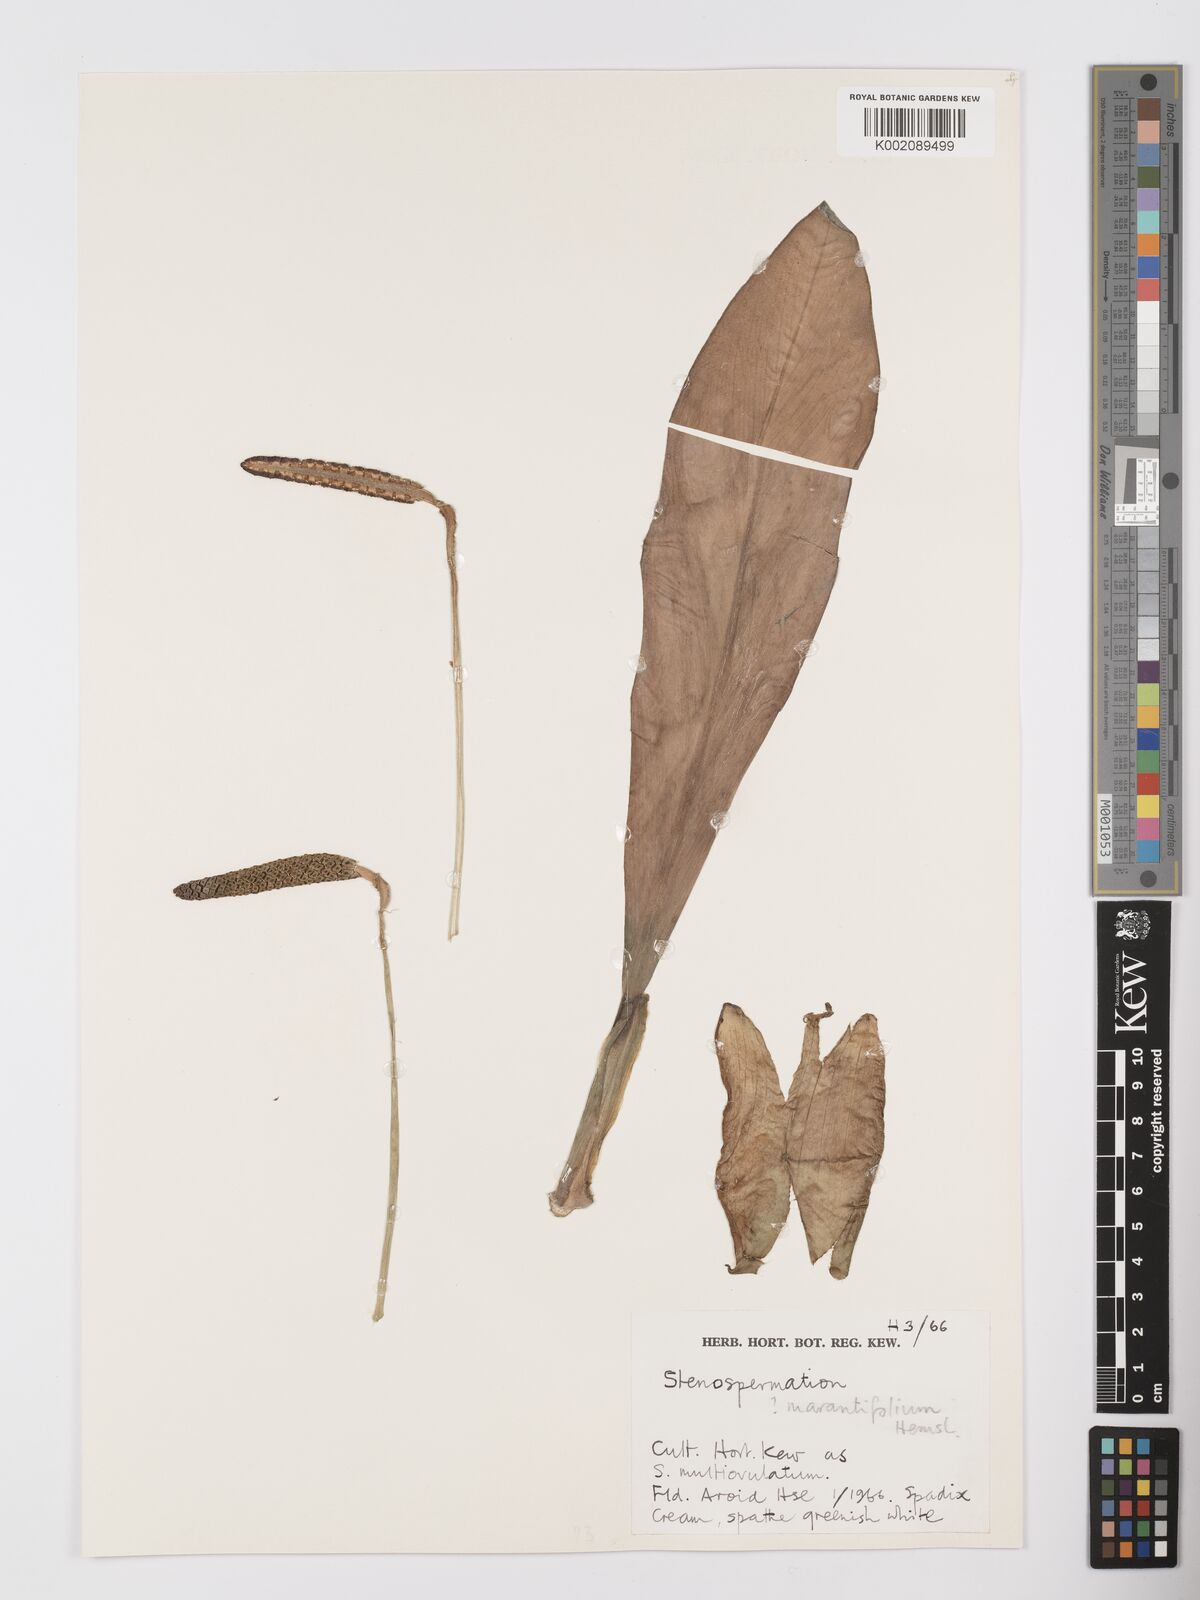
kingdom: Plantae
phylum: Tracheophyta
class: Liliopsida
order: Alismatales
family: Araceae
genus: Stenospermation
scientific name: Stenospermation marantifolium
